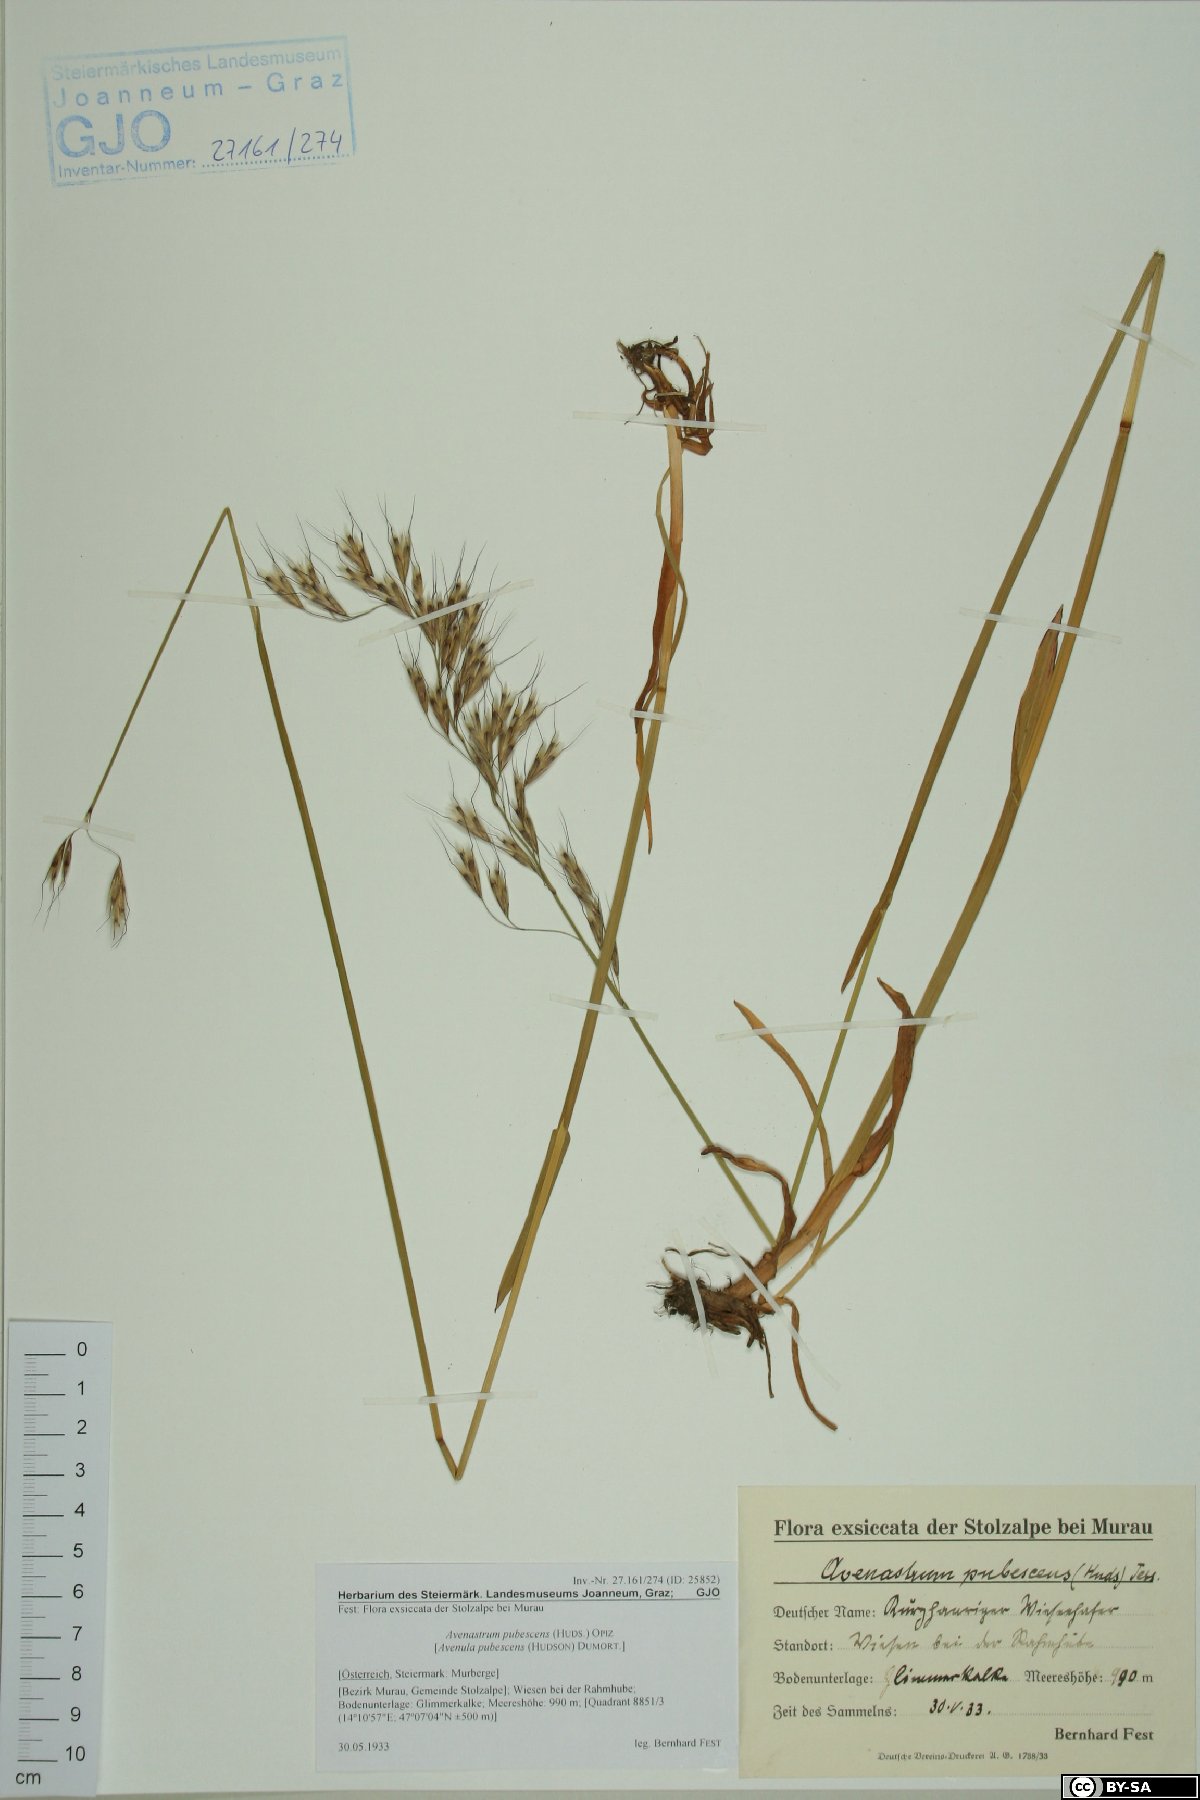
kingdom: Plantae
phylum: Tracheophyta
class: Liliopsida
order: Poales
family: Poaceae
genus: Avenula
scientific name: Avenula pubescens
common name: Downy alpine oatgrass
